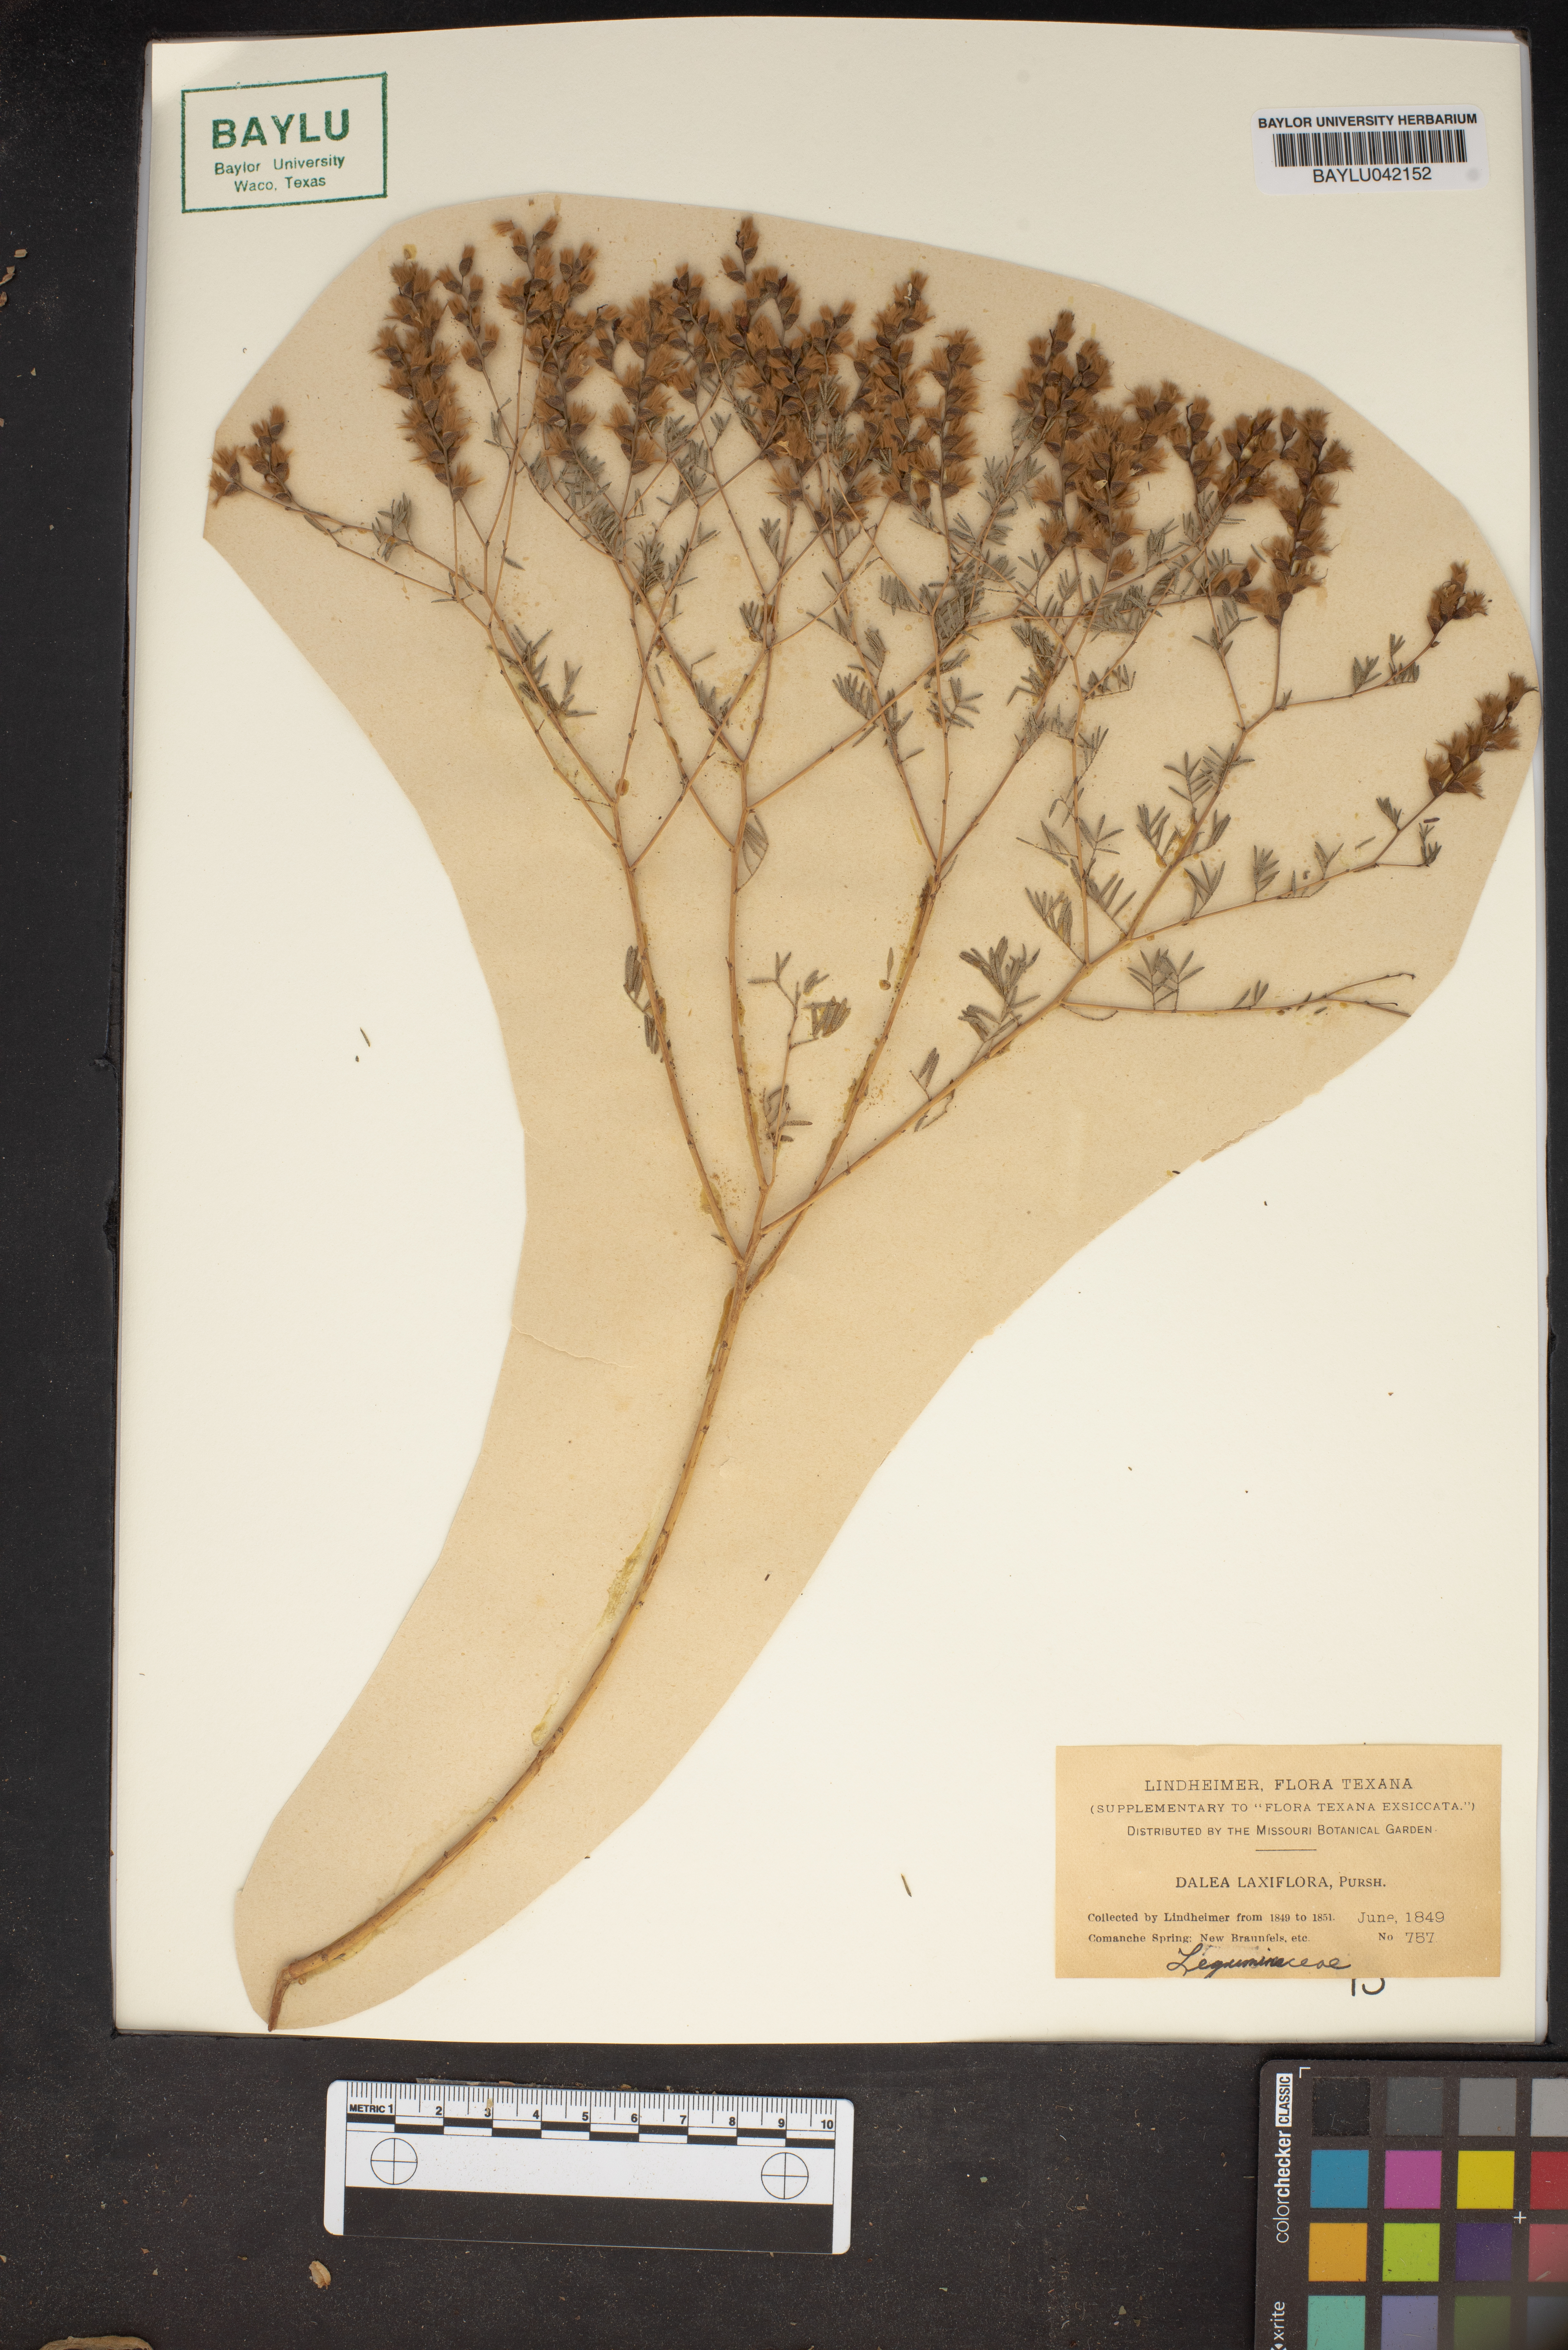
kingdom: Plantae
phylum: Tracheophyta
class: Magnoliopsida
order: Fabales
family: Fabaceae
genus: Dalea
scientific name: Dalea hegewischiana
